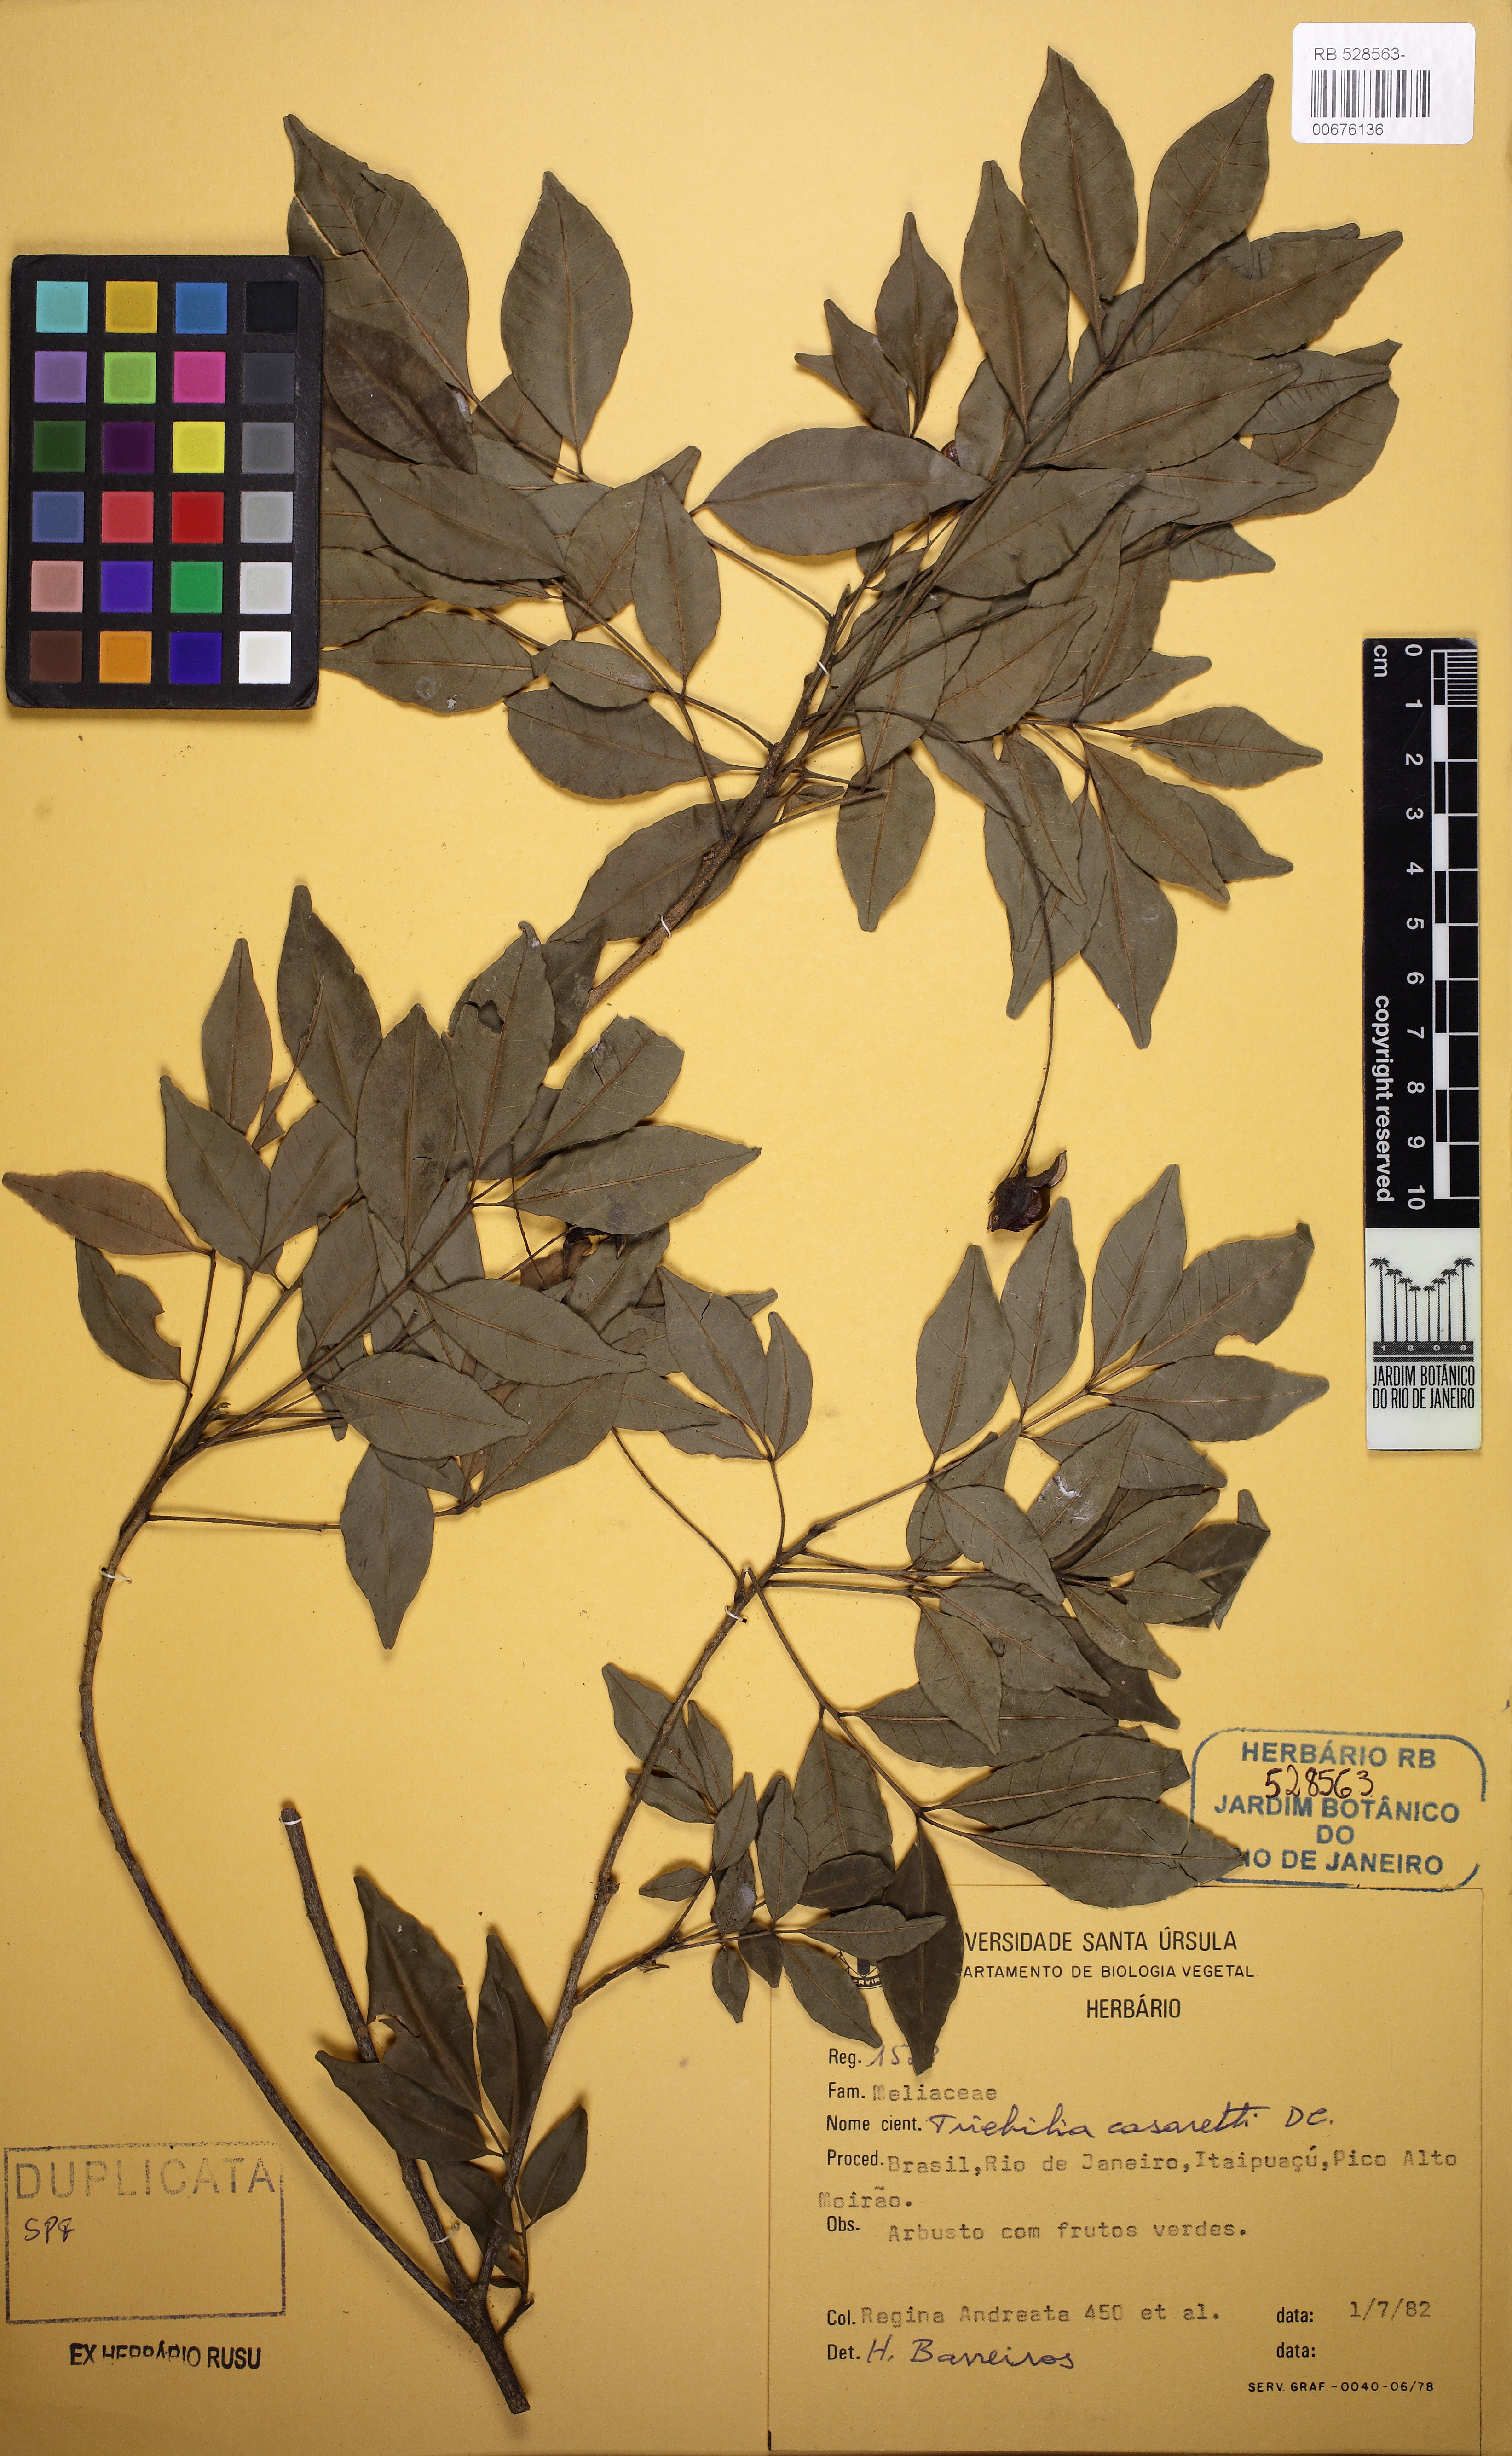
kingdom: Plantae
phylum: Tracheophyta
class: Magnoliopsida
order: Sapindales
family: Meliaceae
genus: Trichilia
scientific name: Trichilia casaretti
